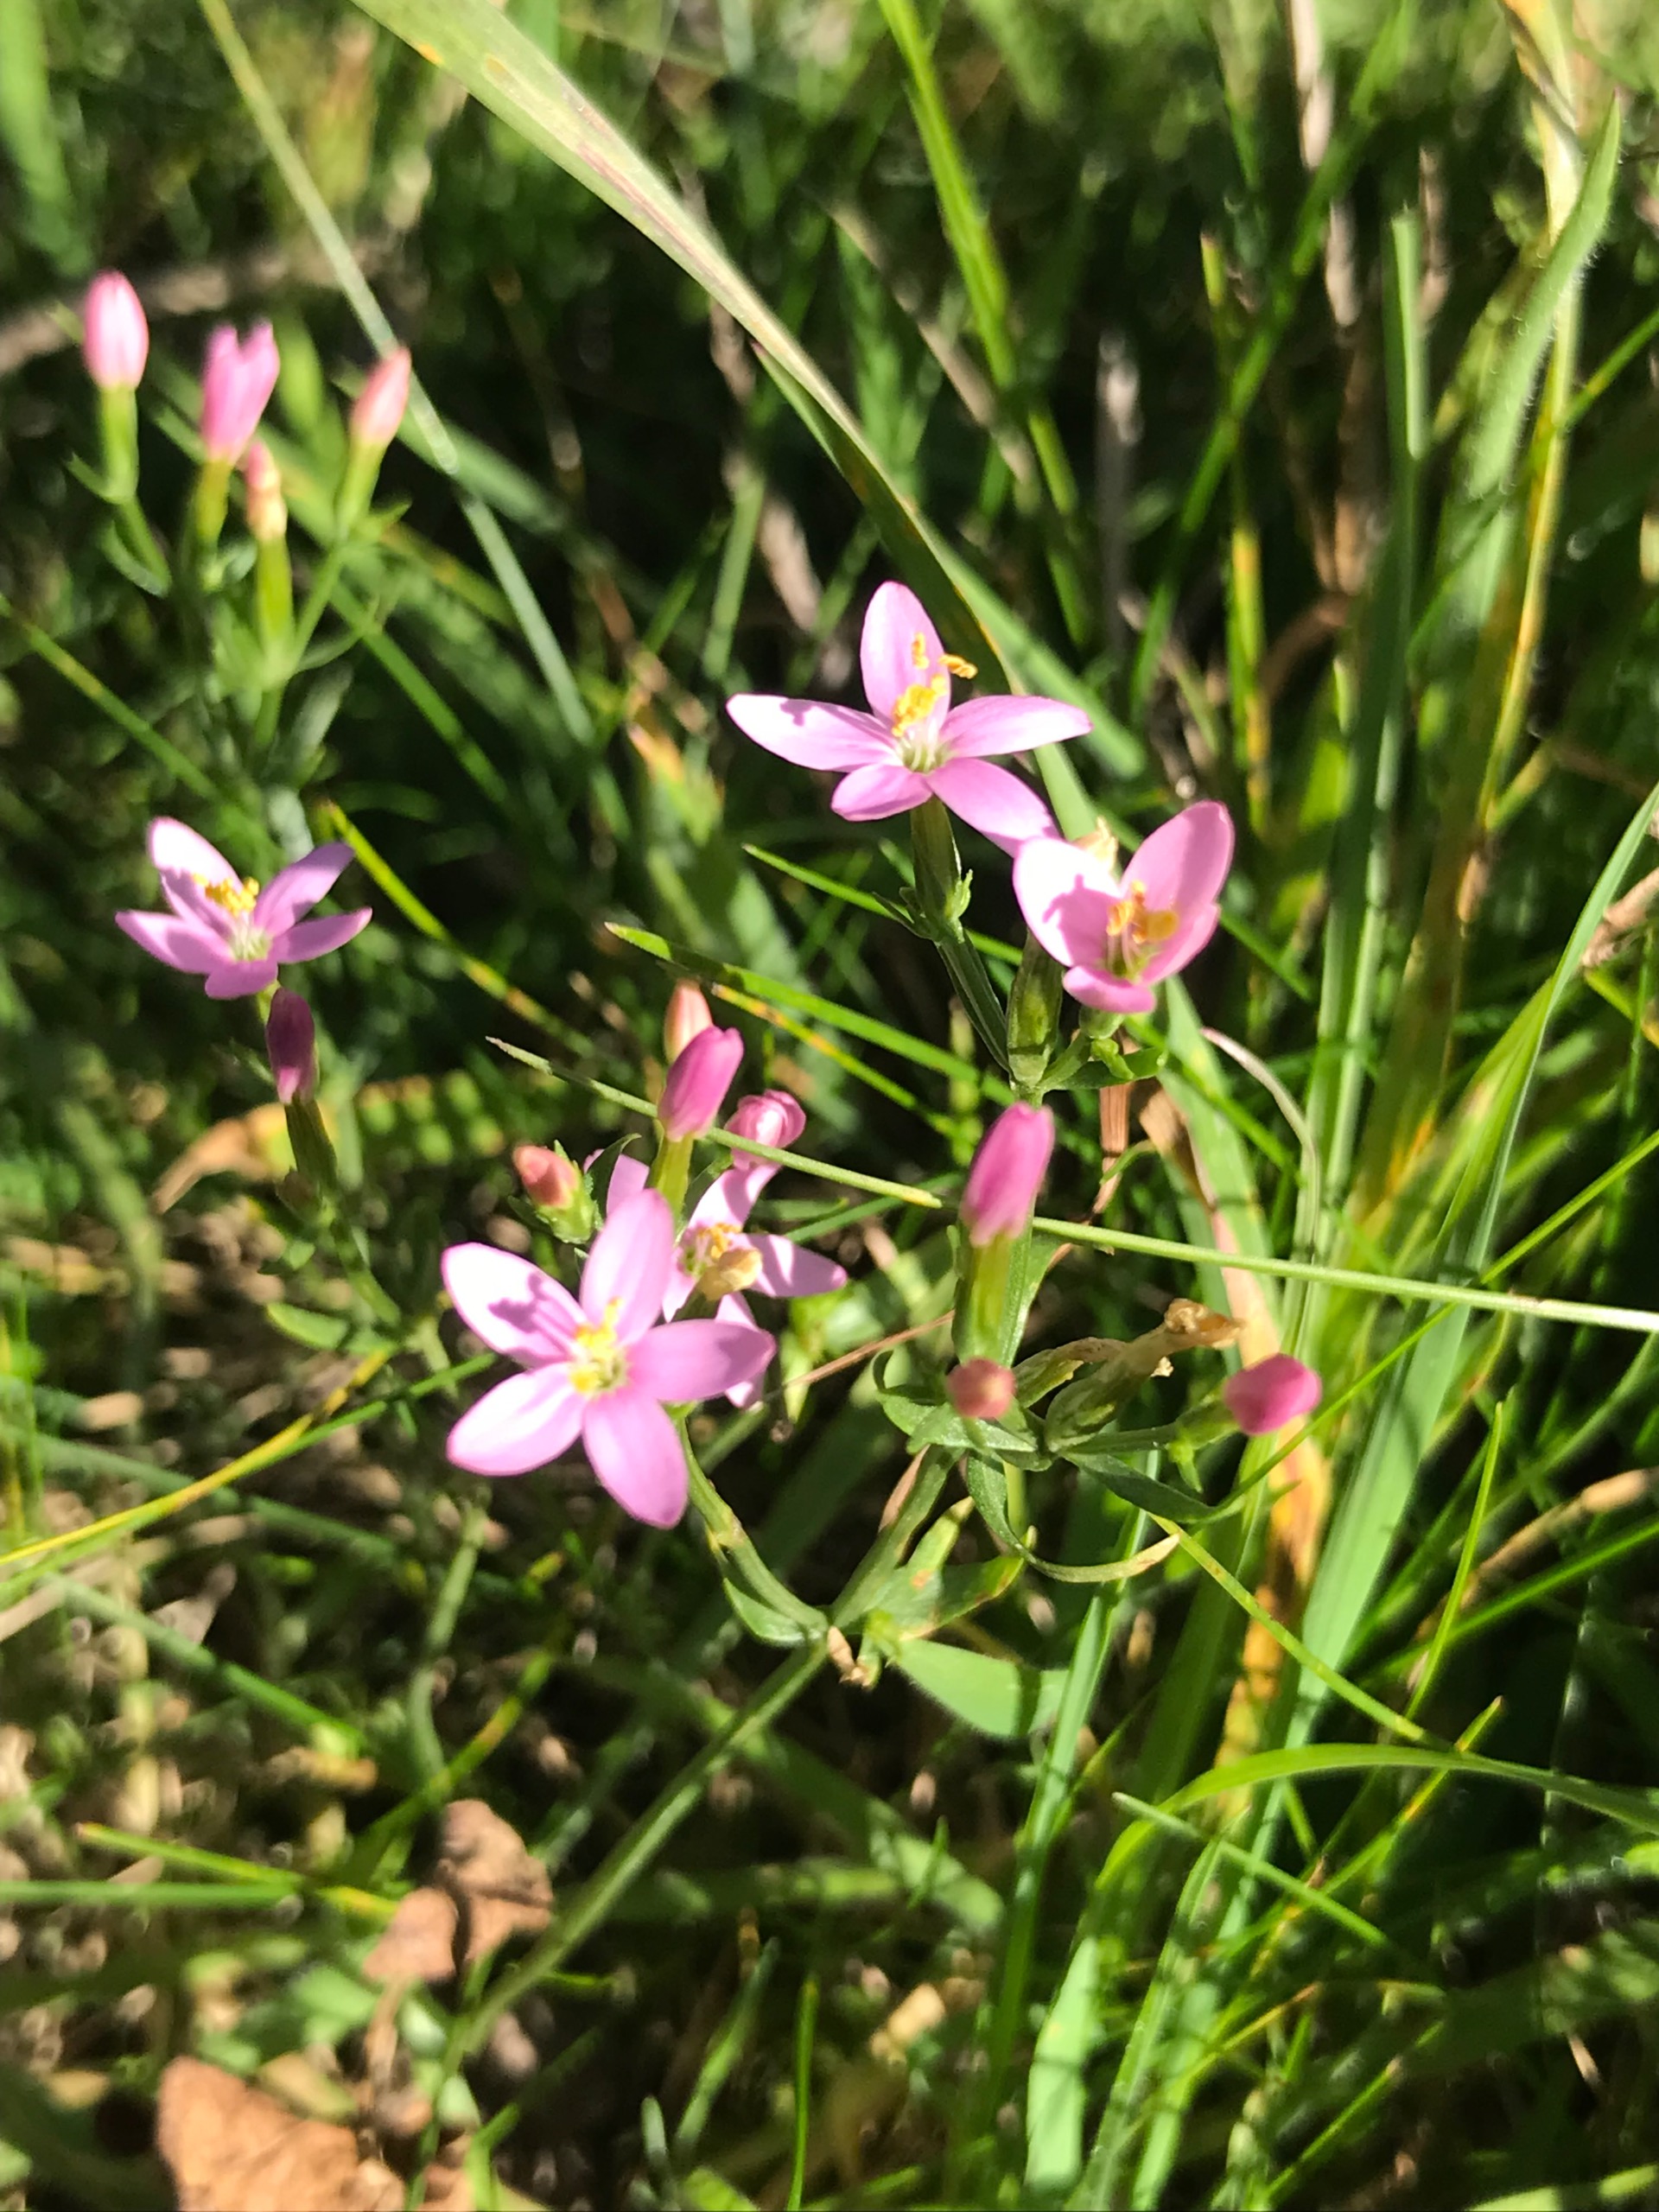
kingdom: Plantae
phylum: Tracheophyta
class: Magnoliopsida
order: Gentianales
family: Gentianaceae
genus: Centaurium
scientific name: Centaurium erythraea
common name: Mark-tusindgylden
